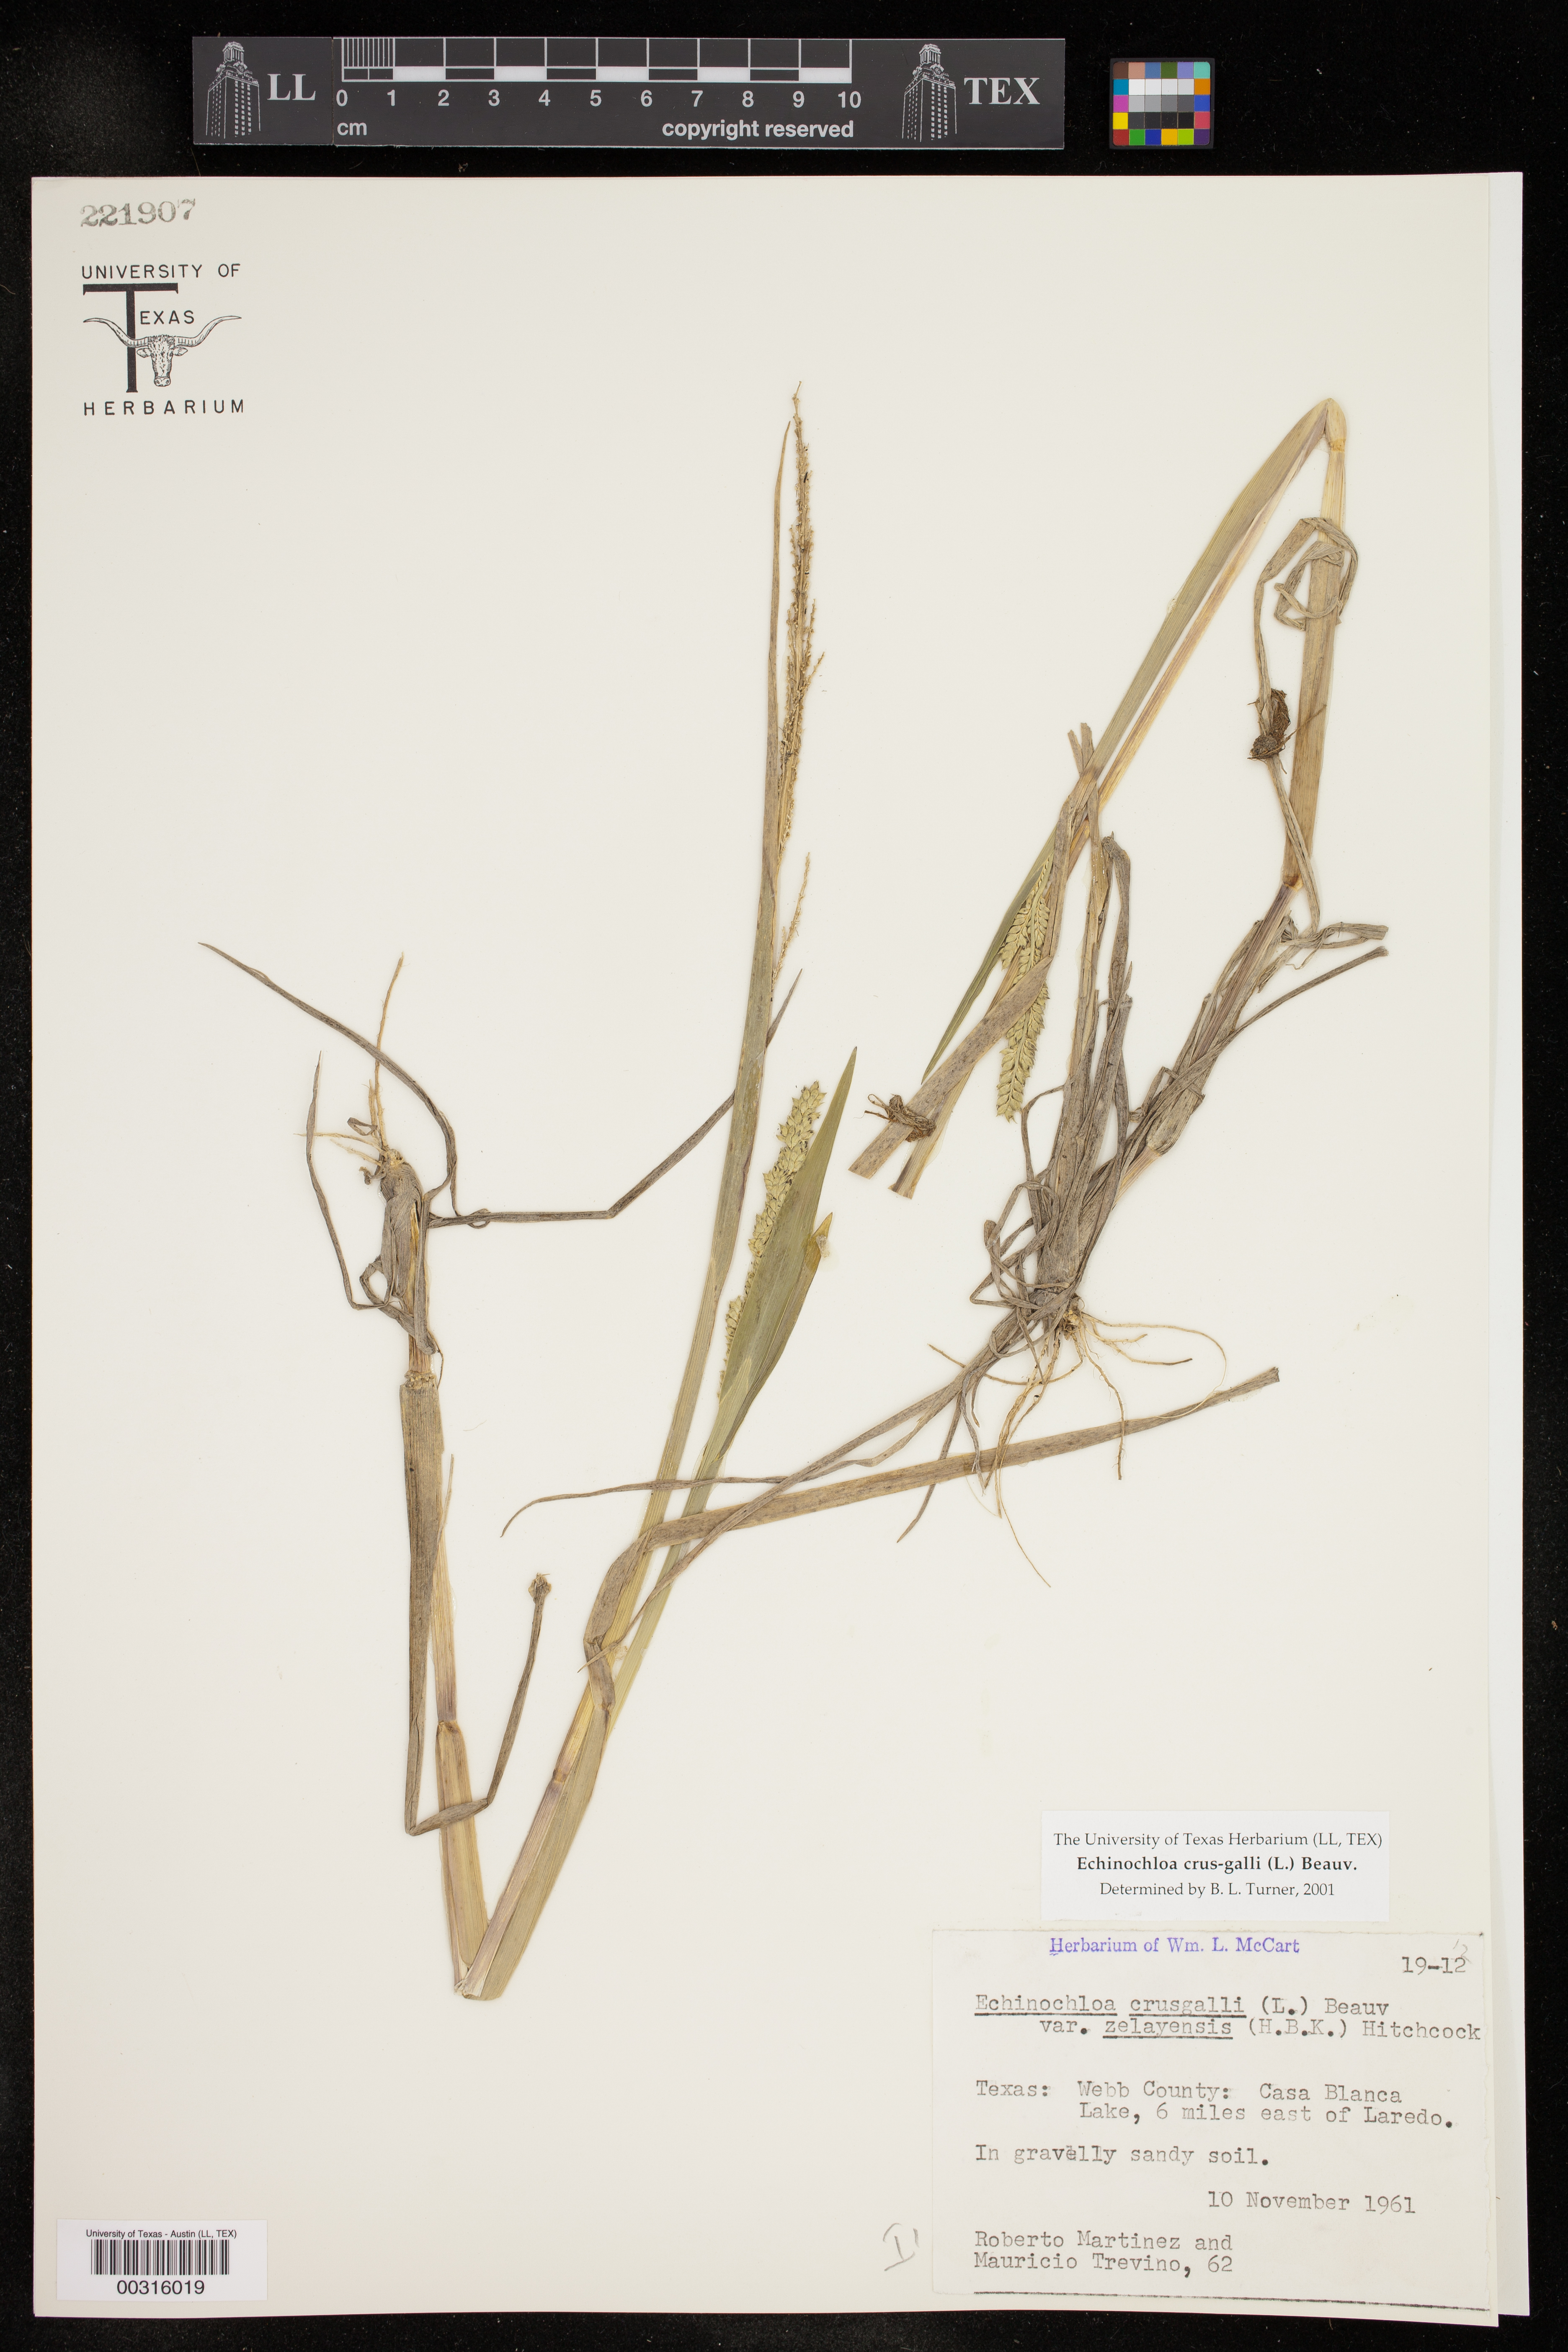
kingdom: Plantae
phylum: Tracheophyta
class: Liliopsida
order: Poales
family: Poaceae
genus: Echinochloa
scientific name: Echinochloa crus-galli
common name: Cockspur
